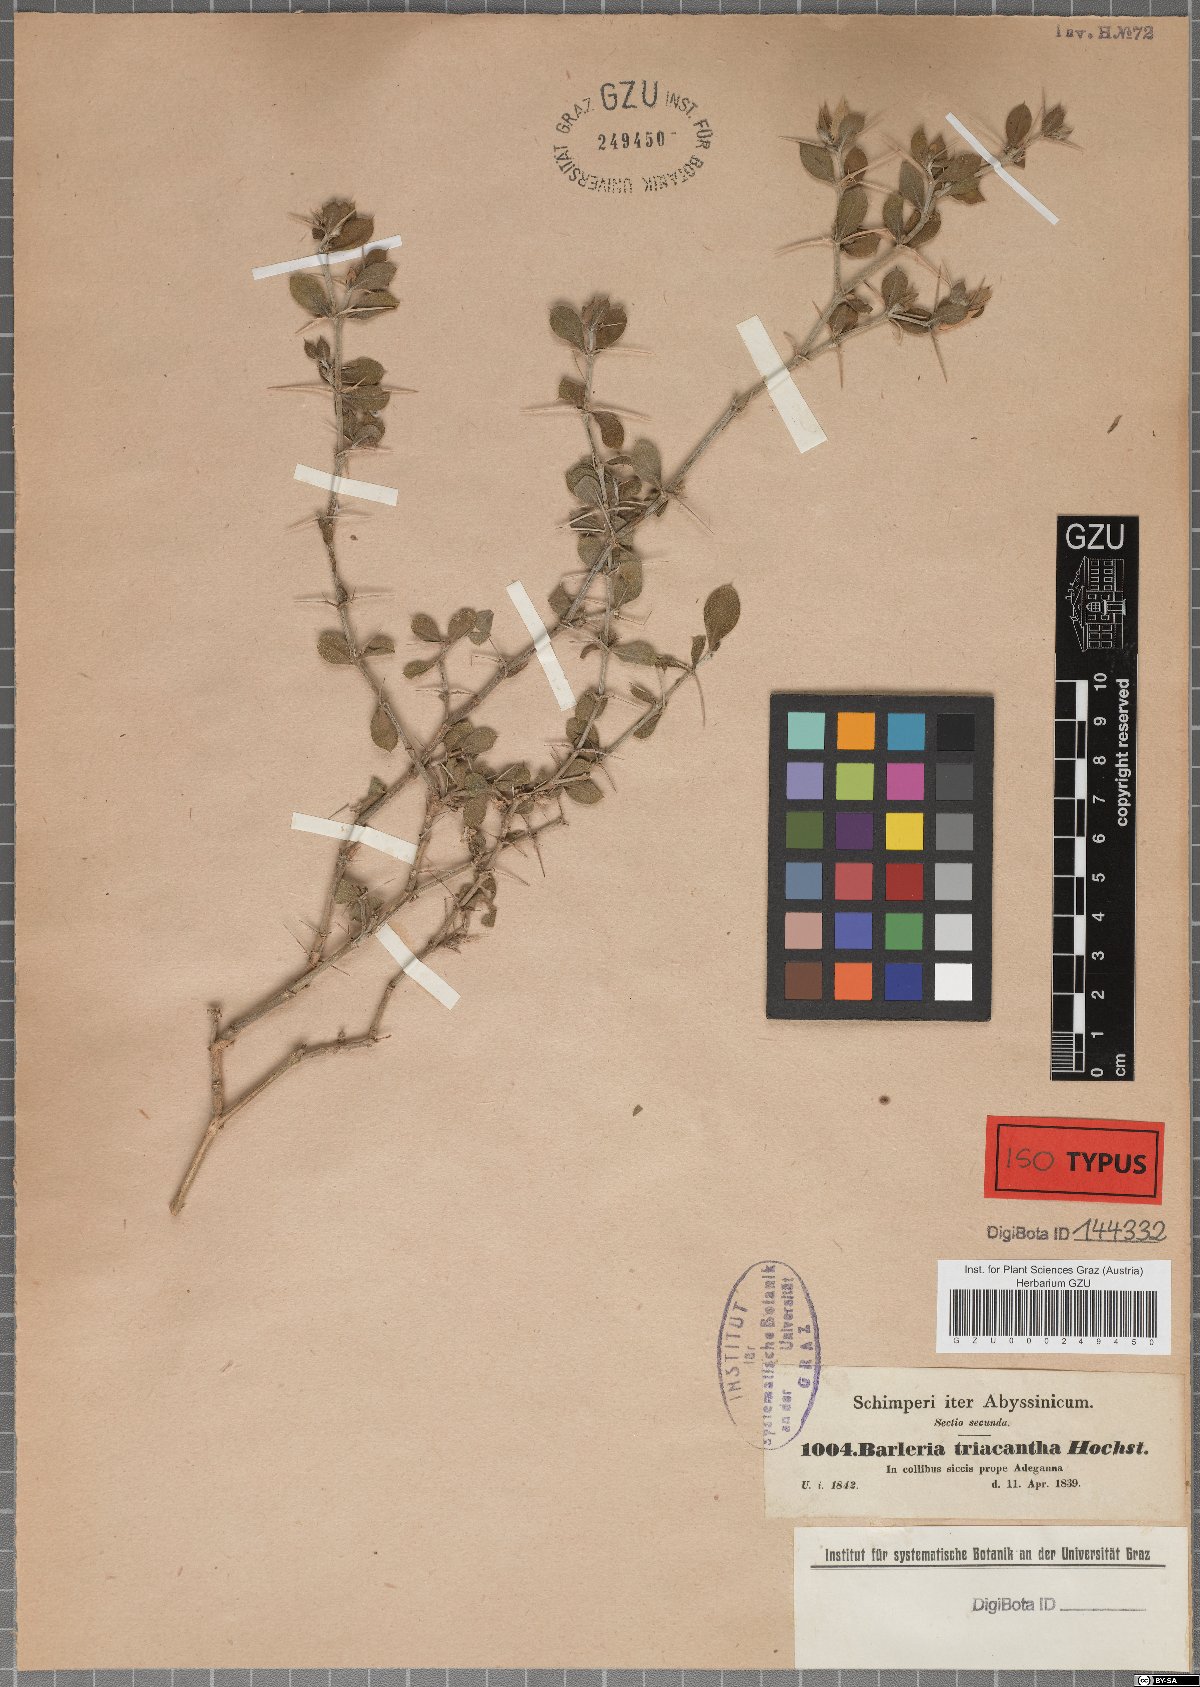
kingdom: Plantae
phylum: Tracheophyta
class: Magnoliopsida
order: Lamiales
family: Acanthaceae
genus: Barleria
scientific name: Barleria lanceata
